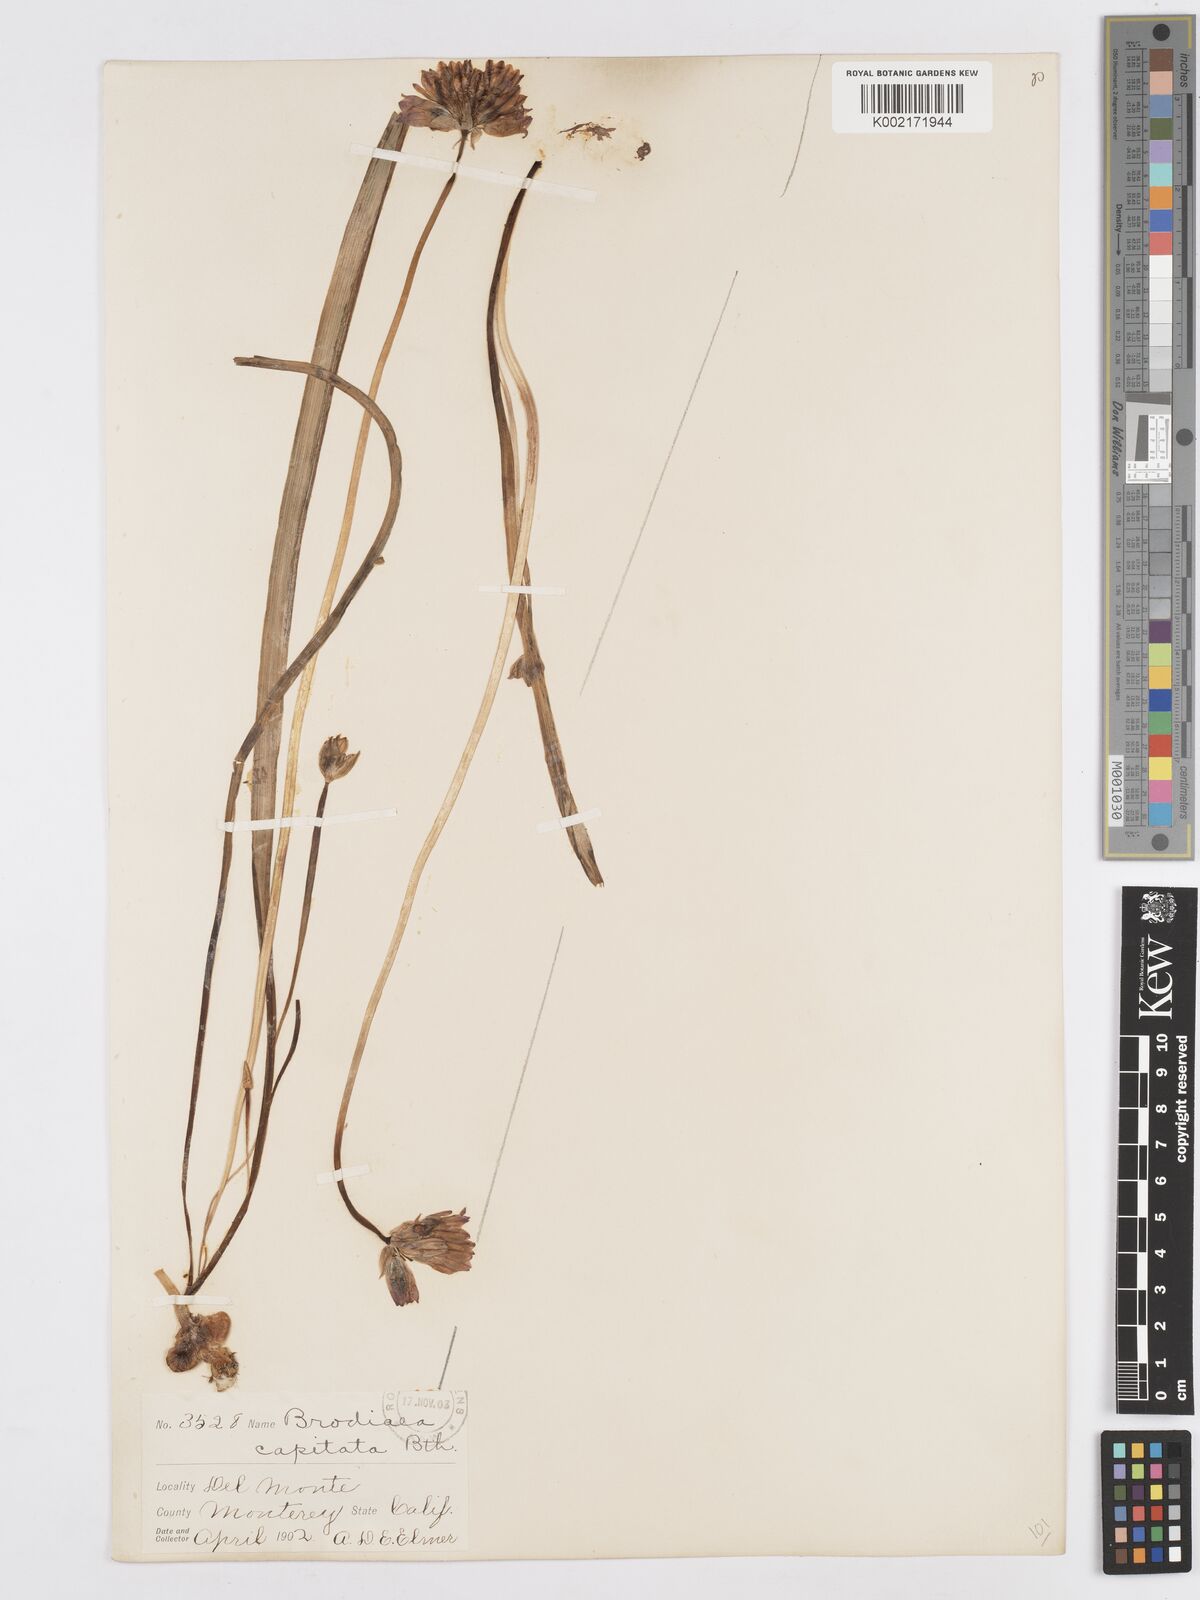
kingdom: Plantae
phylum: Tracheophyta
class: Liliopsida
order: Asparagales
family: Asparagaceae
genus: Dichelostemma
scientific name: Dichelostemma congestum
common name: Fork-tooth ookow
